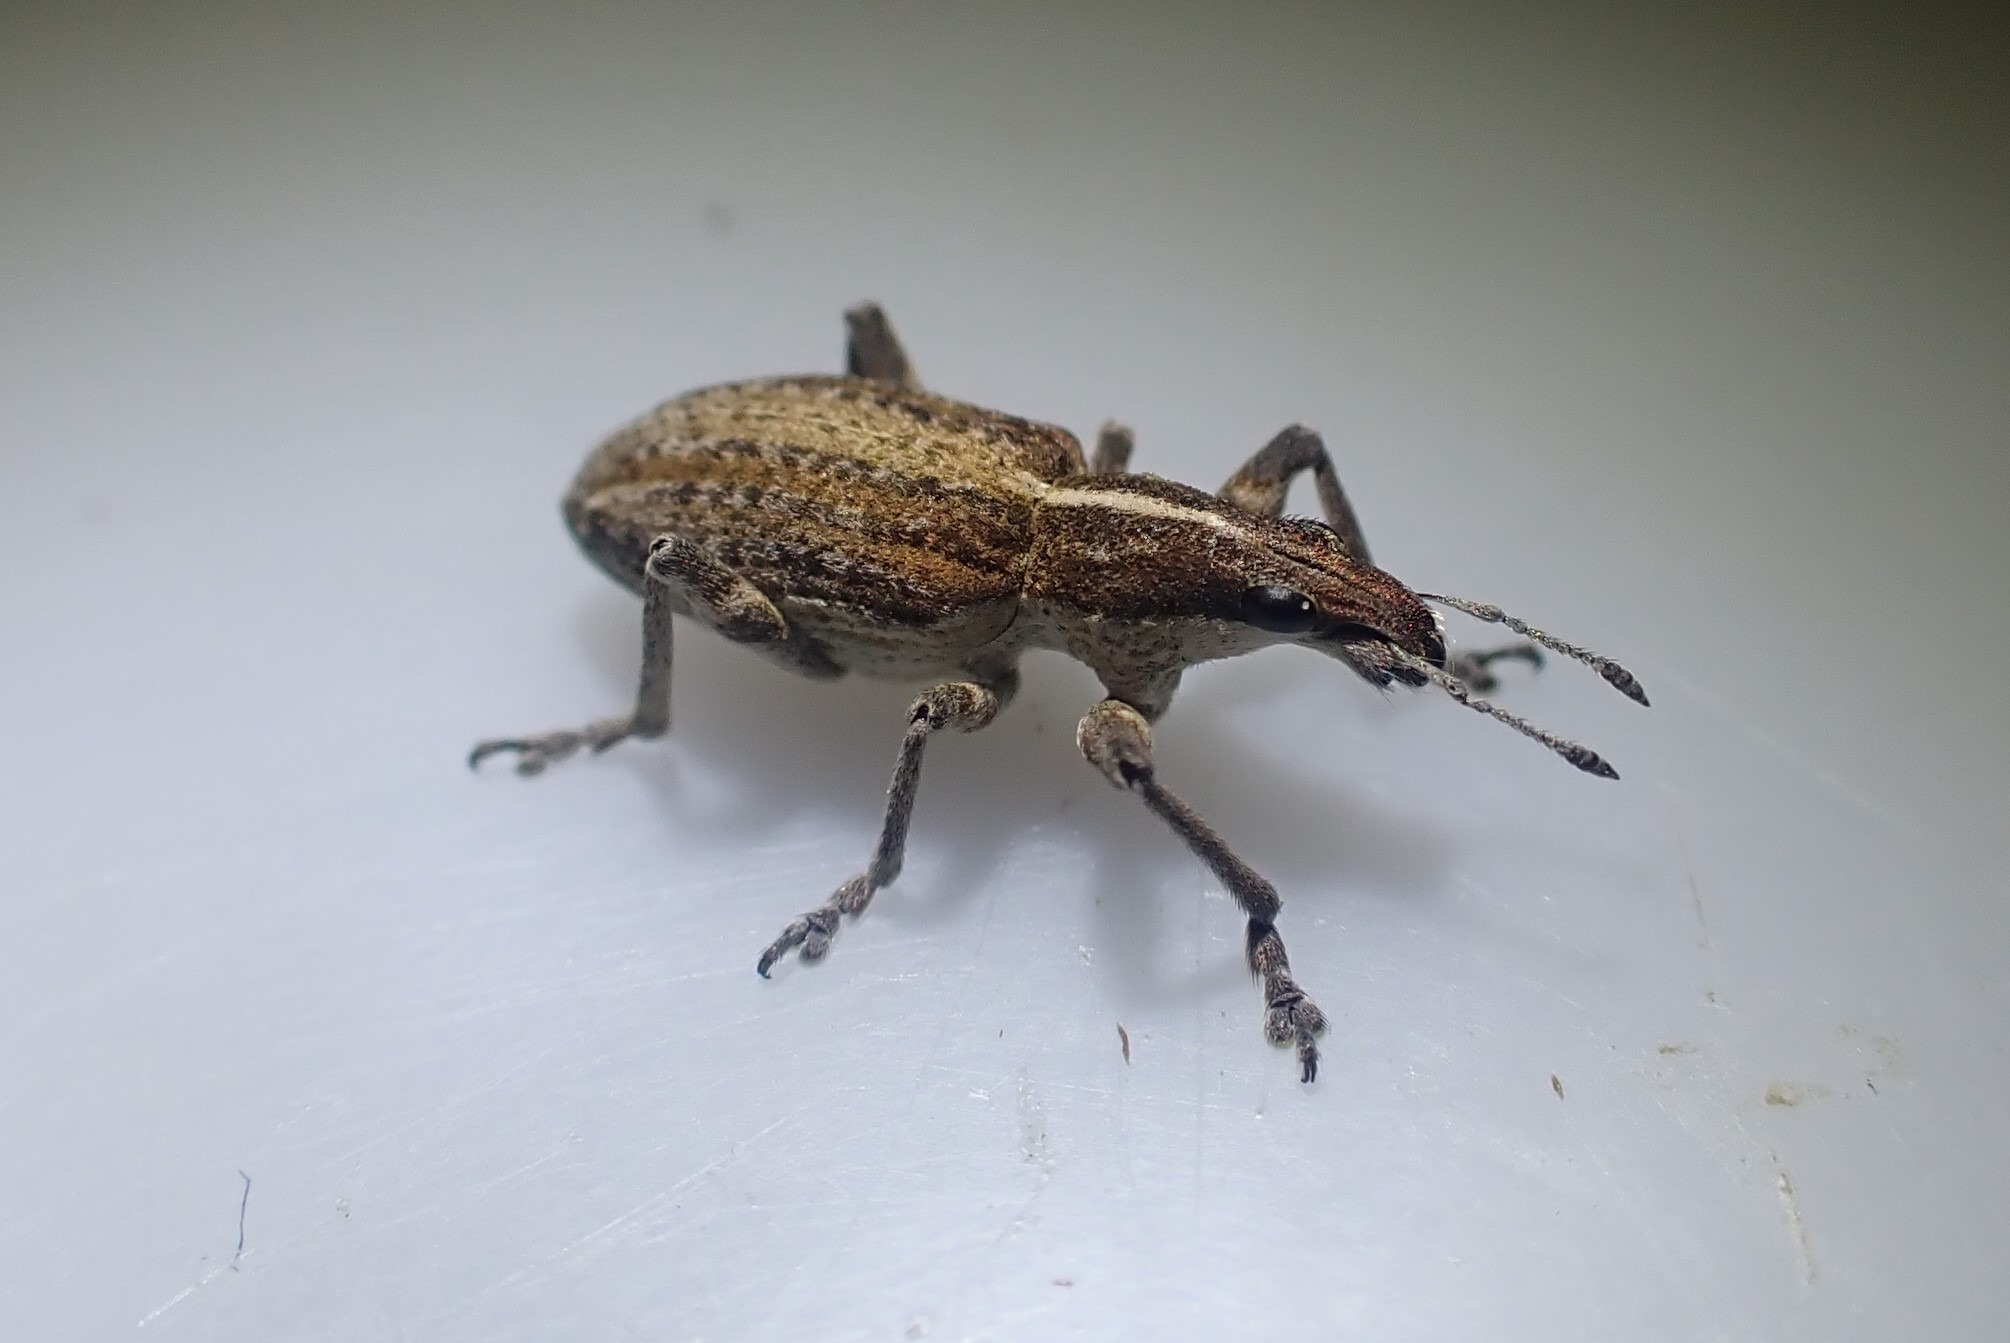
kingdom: Animalia
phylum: Arthropoda
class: Insecta
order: Coleoptera
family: Curculionidae
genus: Charagmus
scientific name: Charagmus gressorius
